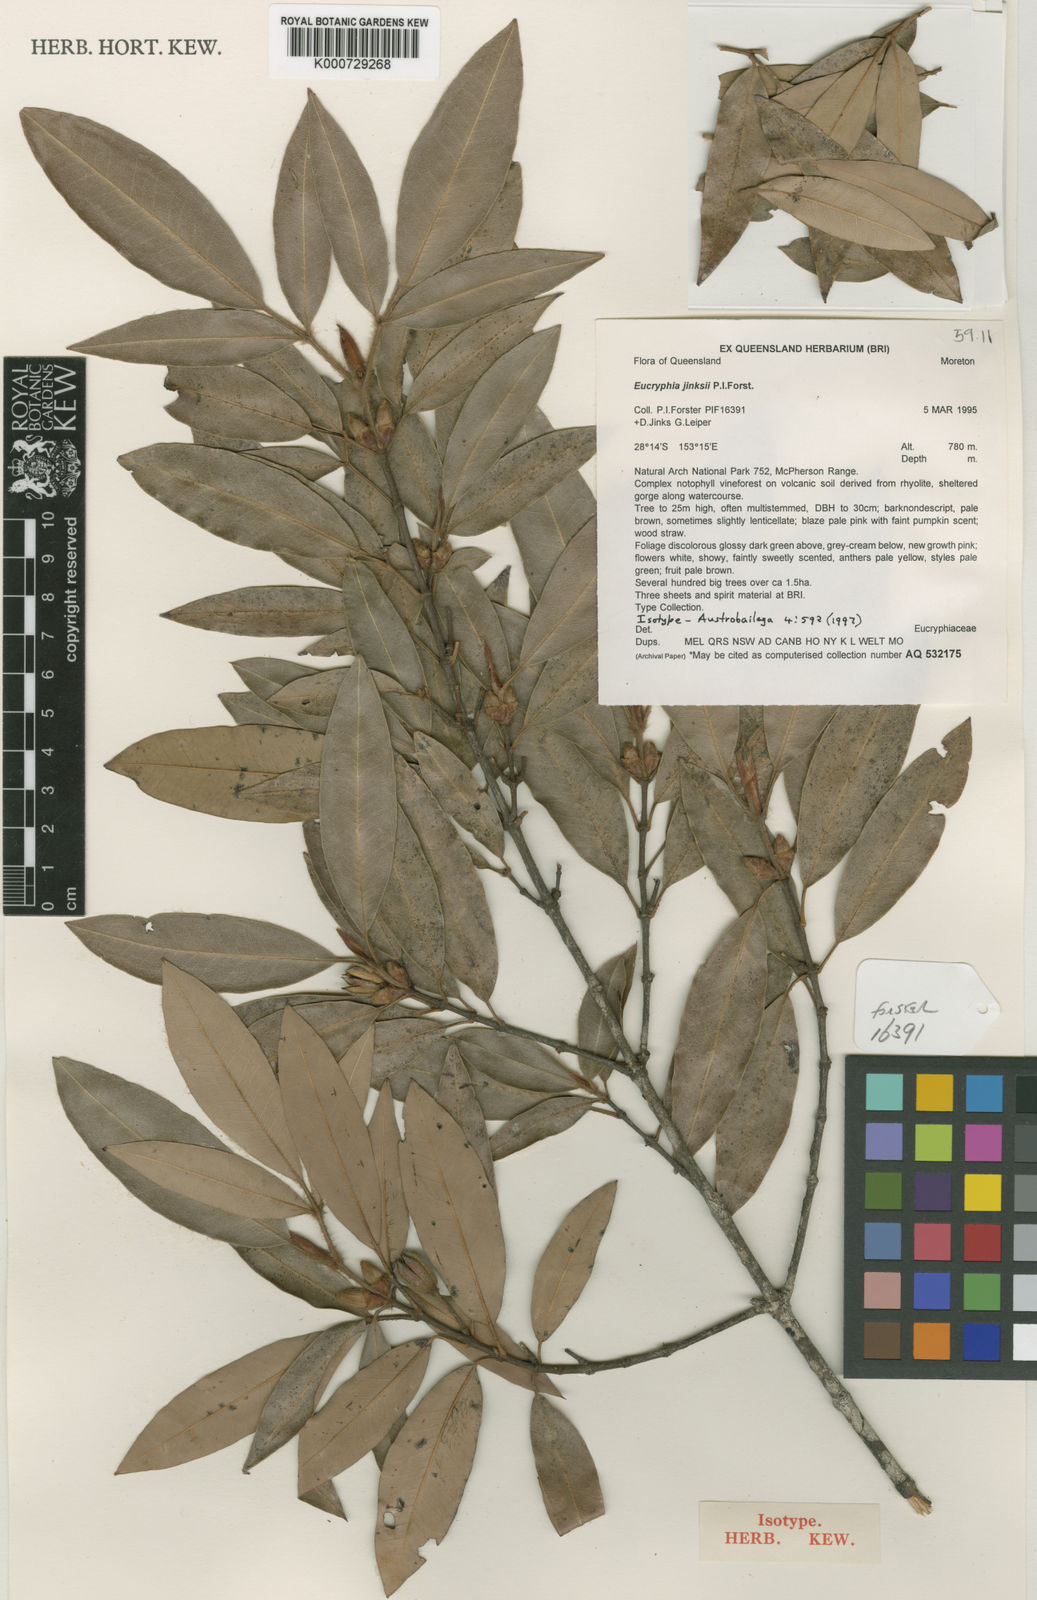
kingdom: Plantae
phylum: Tracheophyta
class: Magnoliopsida
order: Oxalidales
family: Cunoniaceae
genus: Eucryphia
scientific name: Eucryphia jinksii
